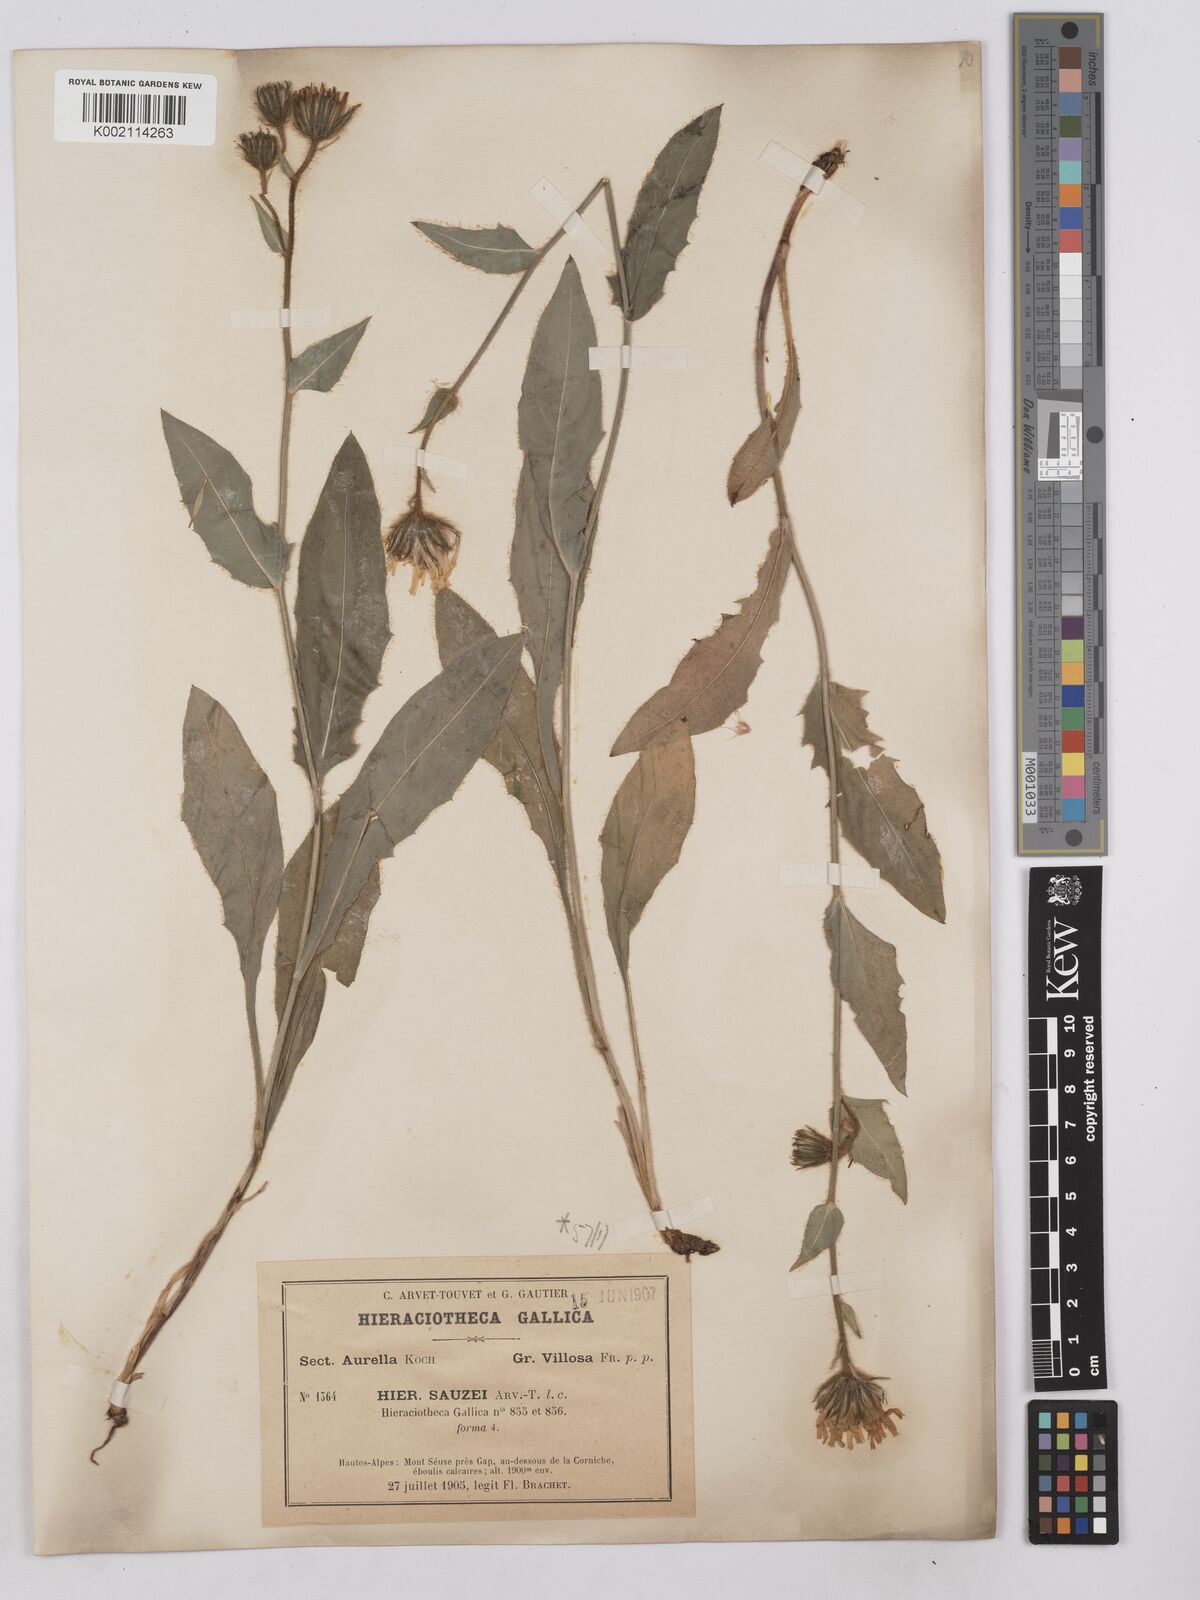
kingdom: Plantae
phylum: Tracheophyta
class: Magnoliopsida
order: Asterales
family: Asteraceae
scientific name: Asteraceae
